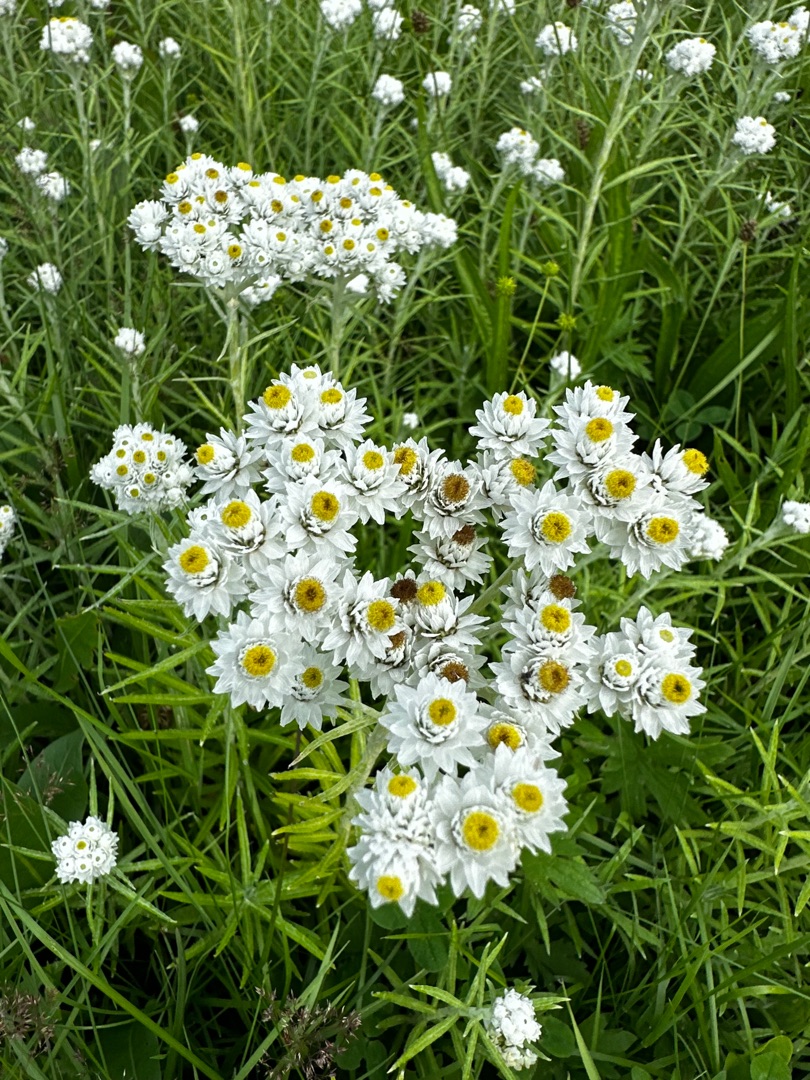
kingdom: Plantae
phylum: Tracheophyta
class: Magnoliopsida
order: Asterales
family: Asteraceae
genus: Anaphalis
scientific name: Anaphalis margaritacea
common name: Perlekurv
